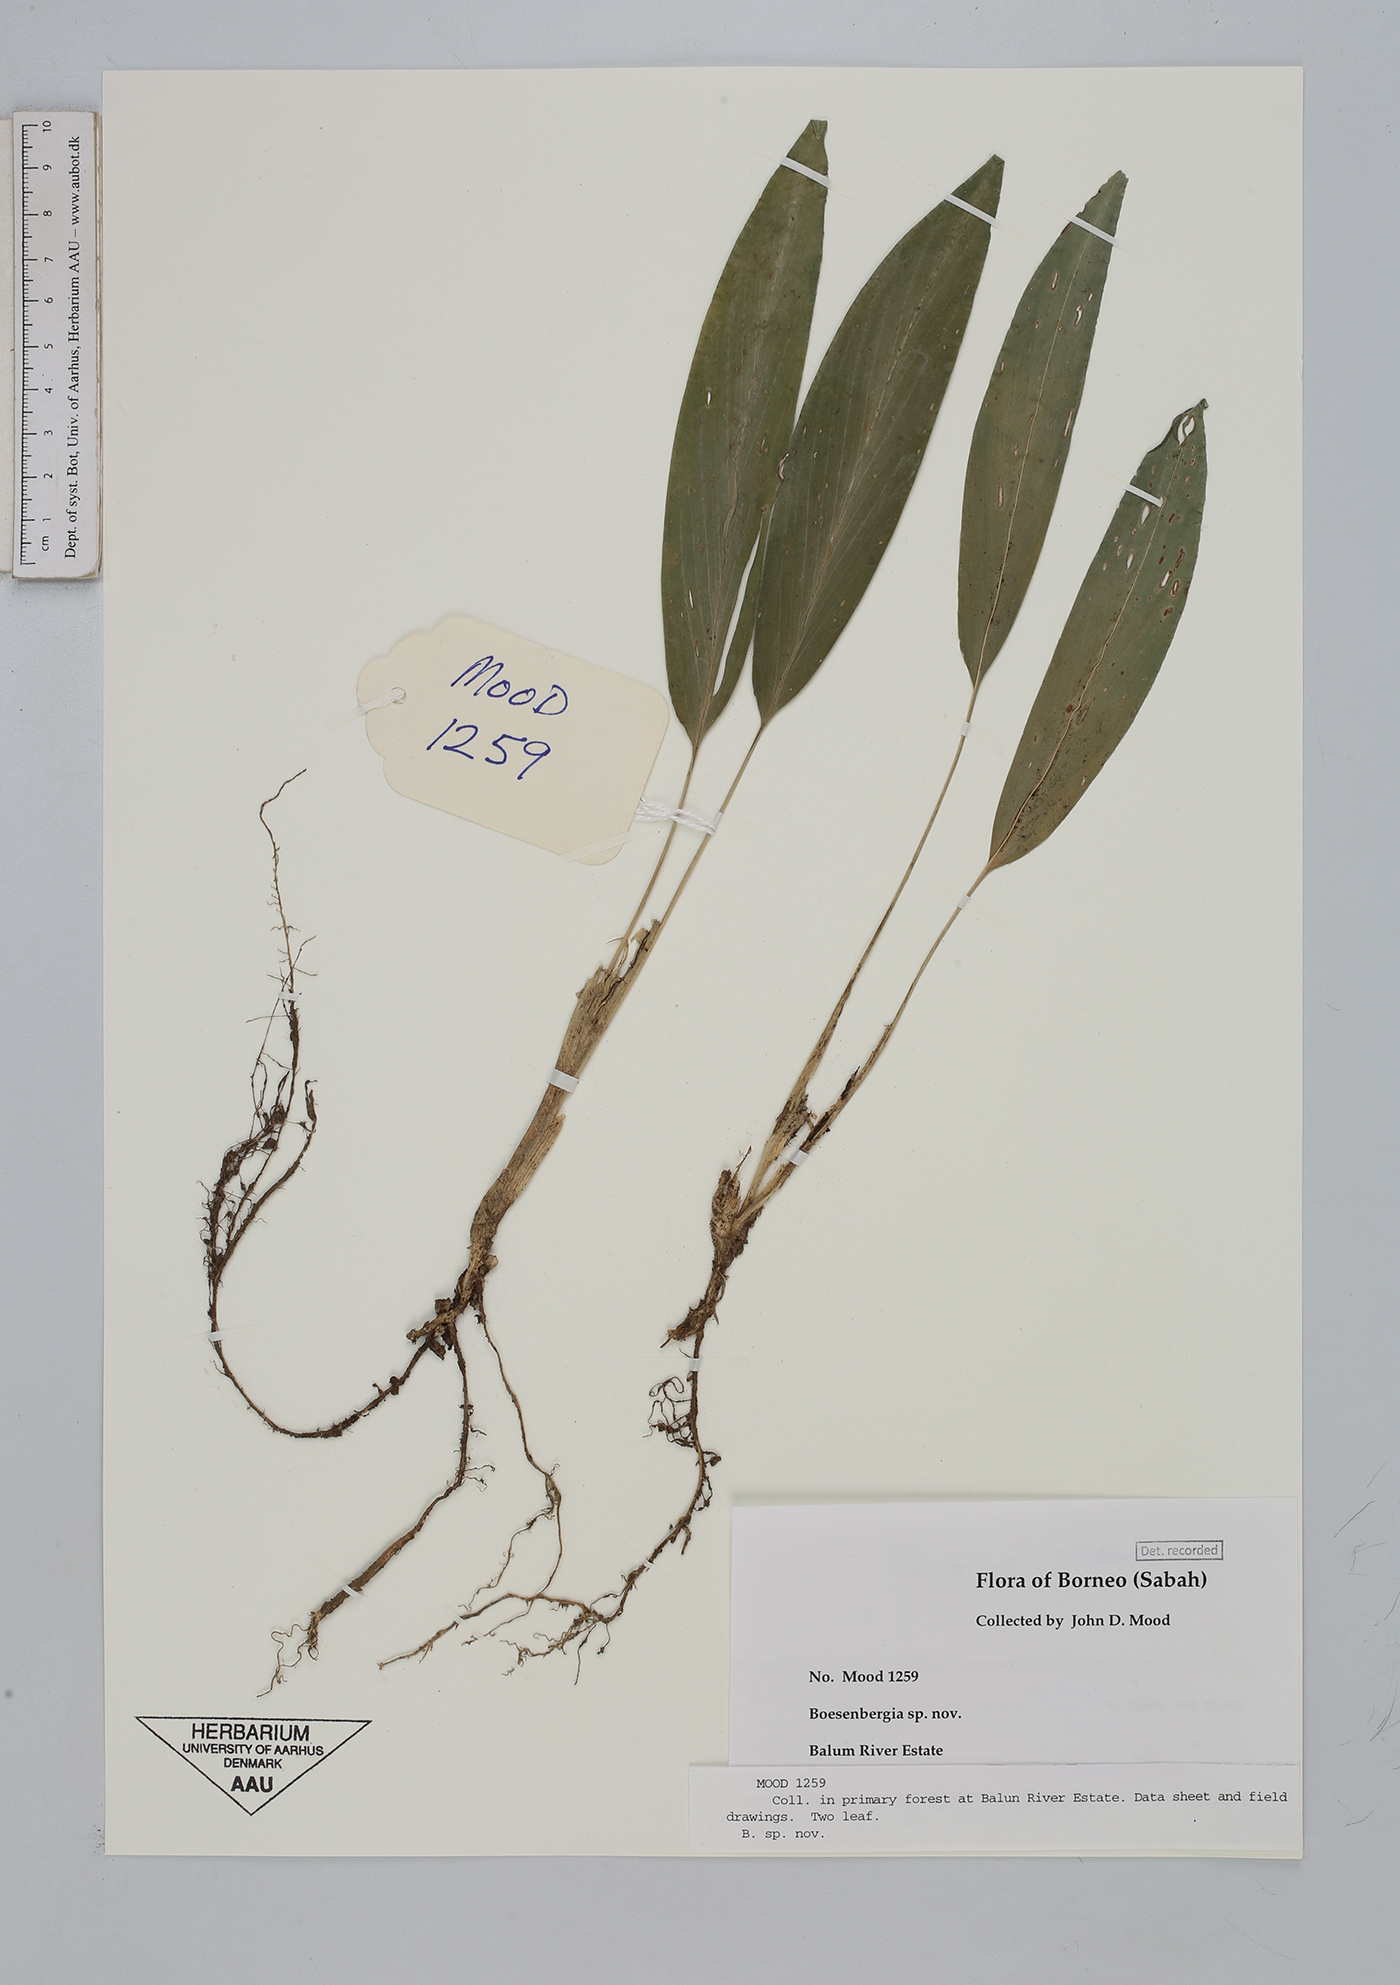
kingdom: Plantae
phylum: Tracheophyta
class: Liliopsida
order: Zingiberales
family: Zingiberaceae
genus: Boesenbergia
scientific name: Boesenbergia
